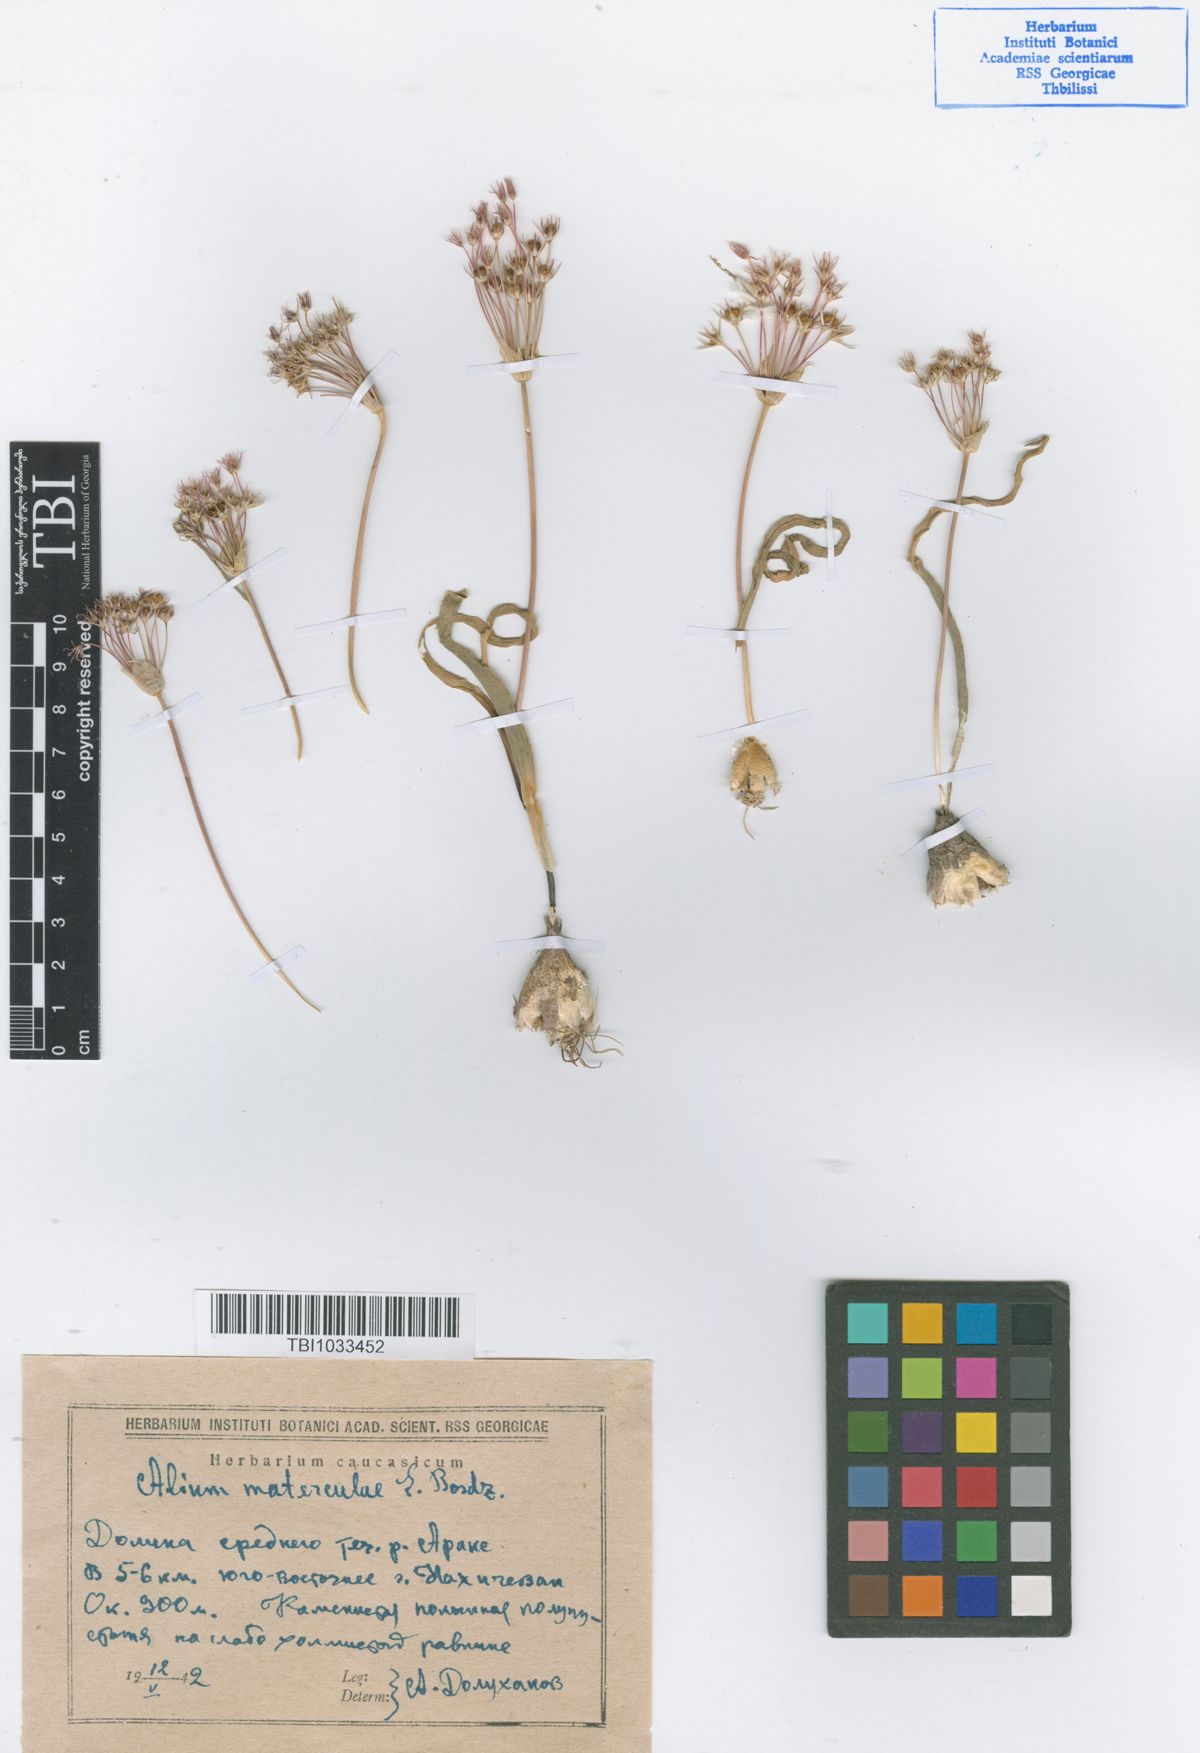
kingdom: Plantae
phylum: Tracheophyta
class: Liliopsida
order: Asparagales
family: Amaryllidaceae
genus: Allium
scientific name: Allium materculae
